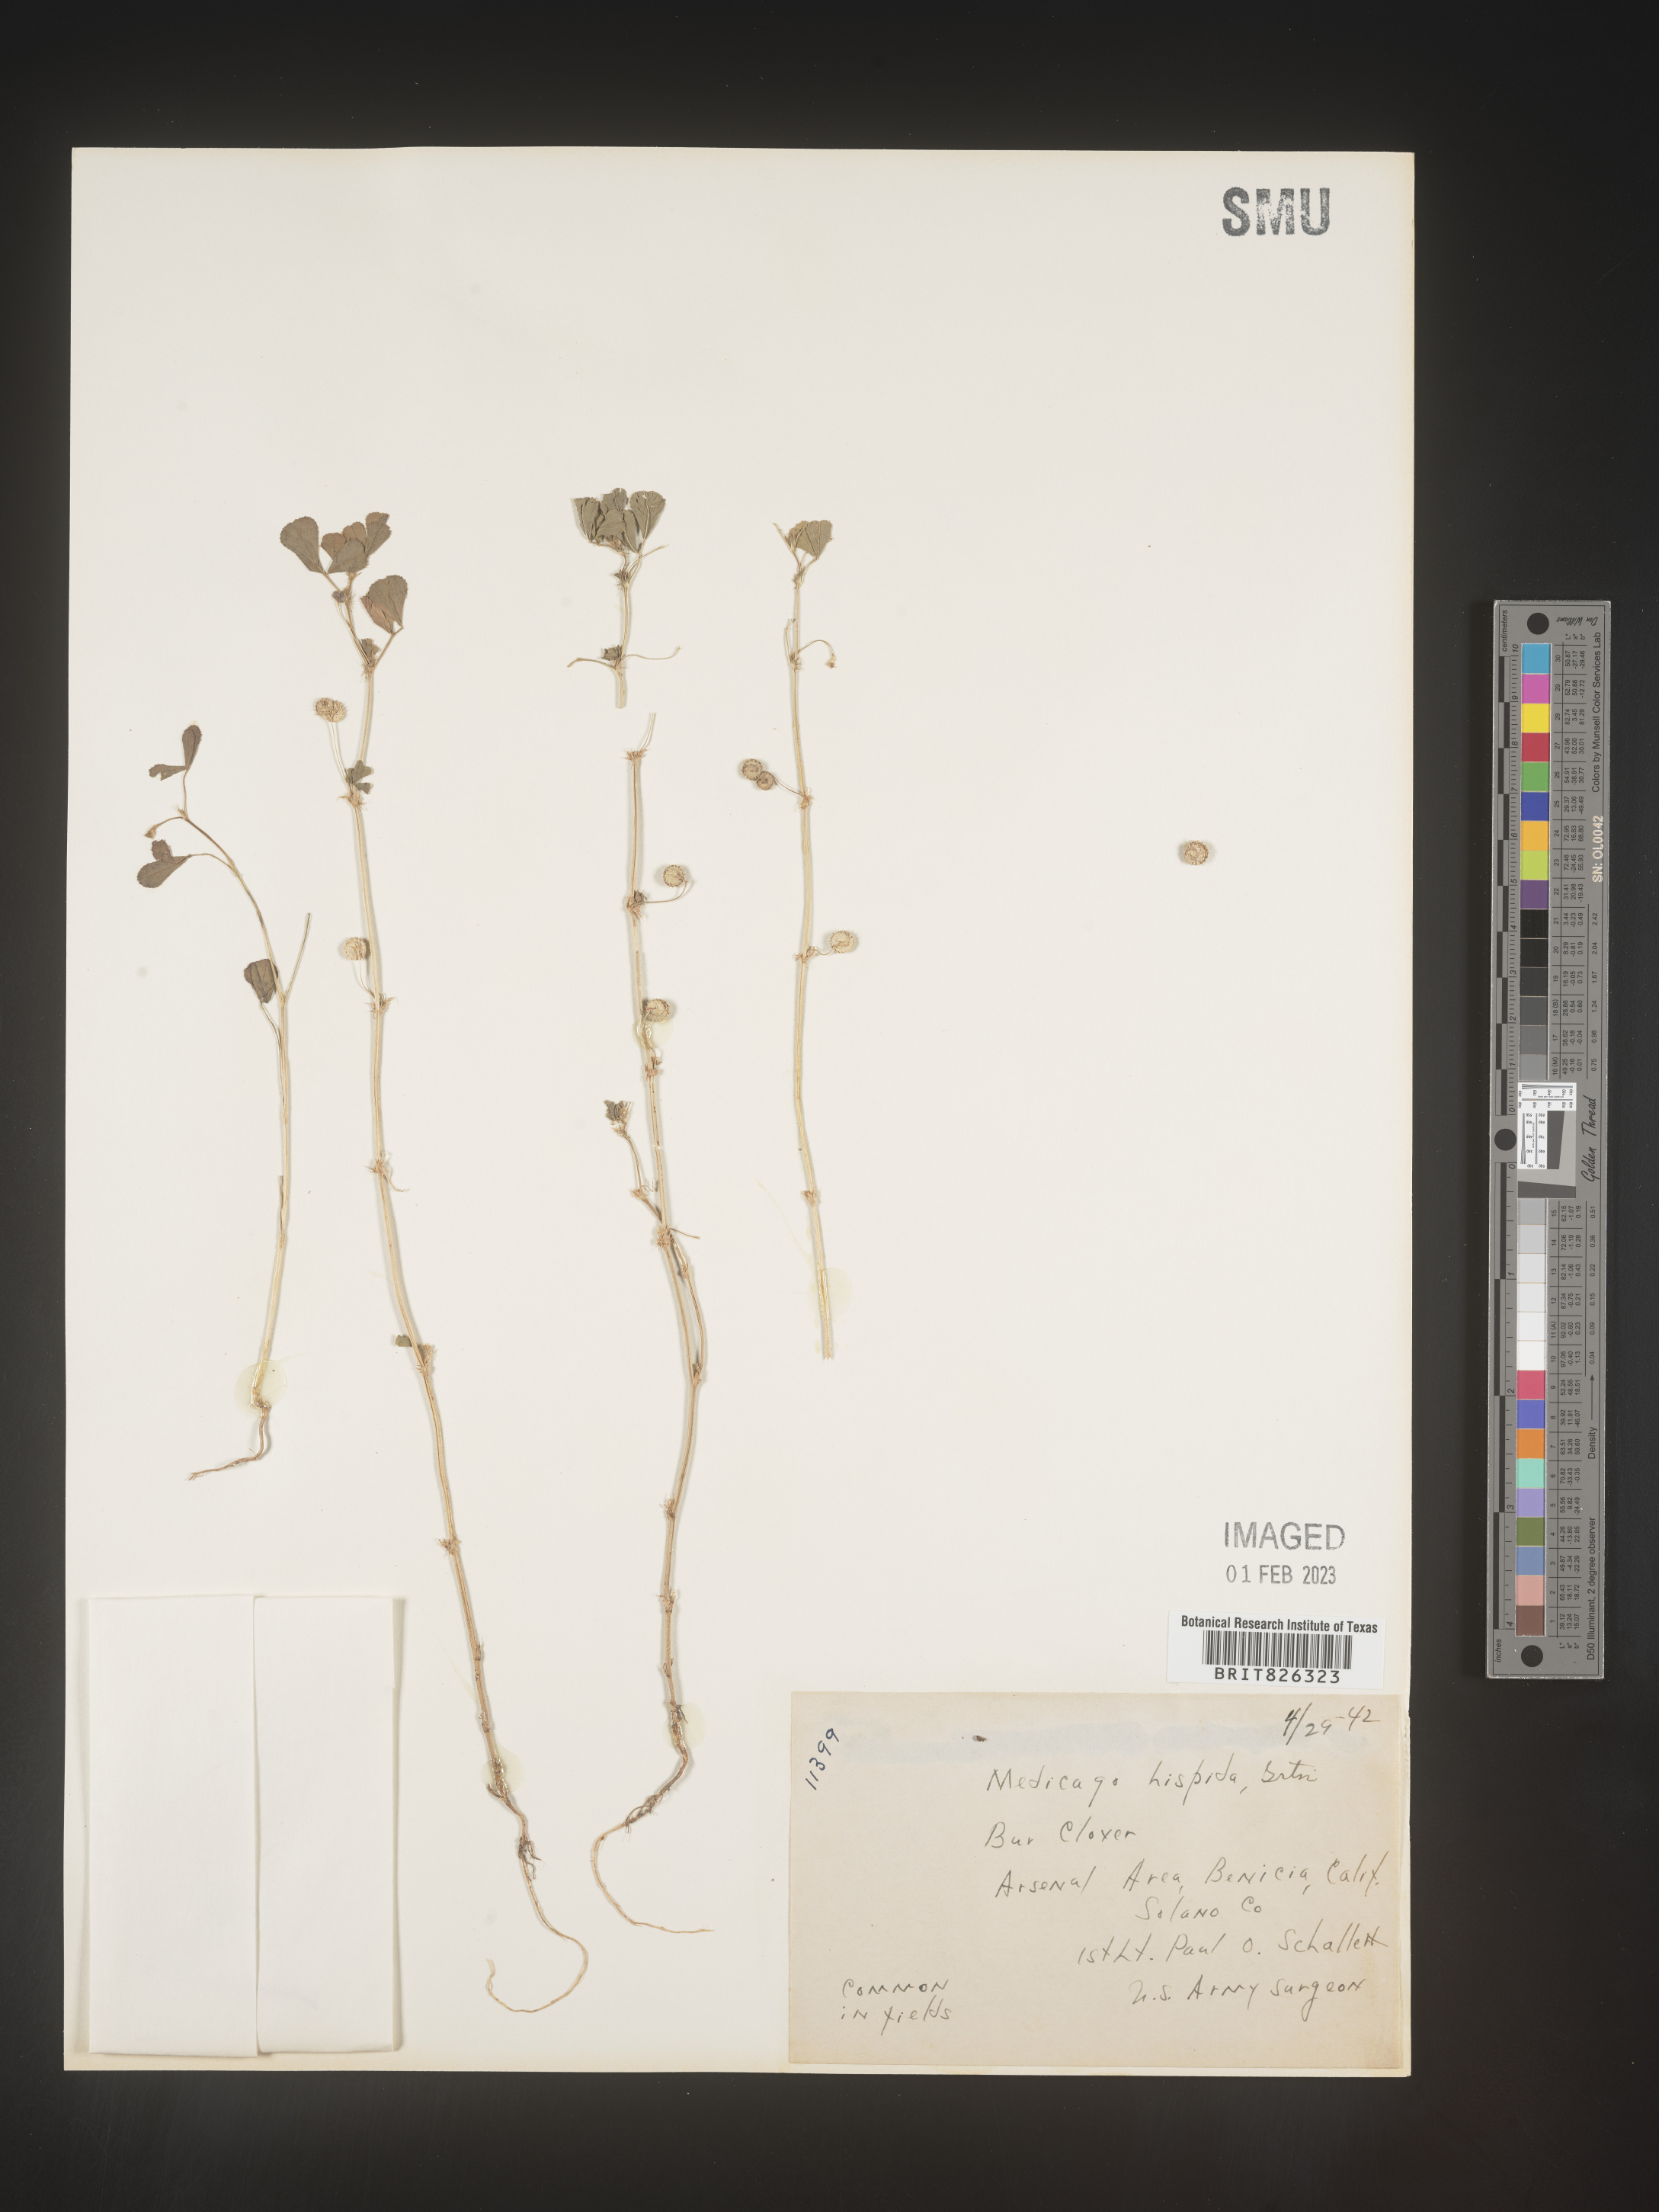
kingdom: Plantae
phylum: Tracheophyta
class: Magnoliopsida
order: Fabales
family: Fabaceae
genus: Medicago
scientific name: Medicago polymorpha
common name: Burclover
